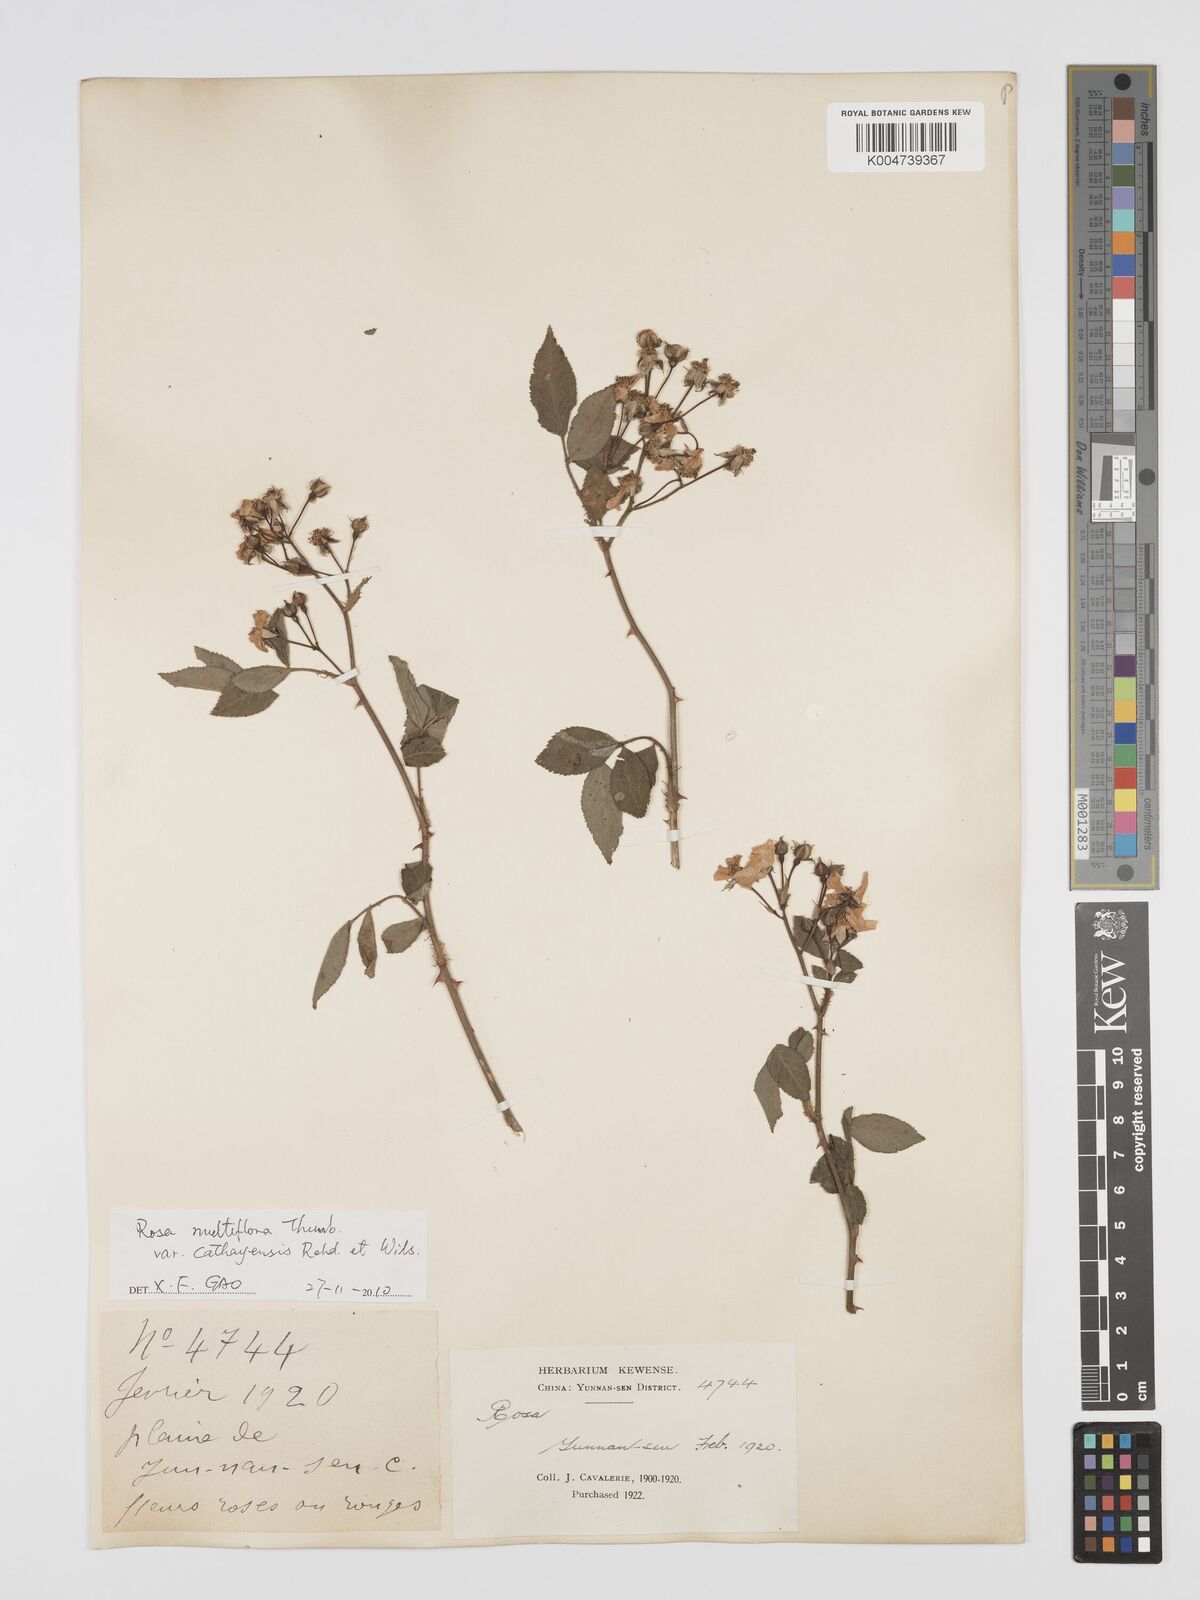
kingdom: Plantae
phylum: Tracheophyta
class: Magnoliopsida
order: Rosales
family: Rosaceae
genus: Rosa
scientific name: Rosa
